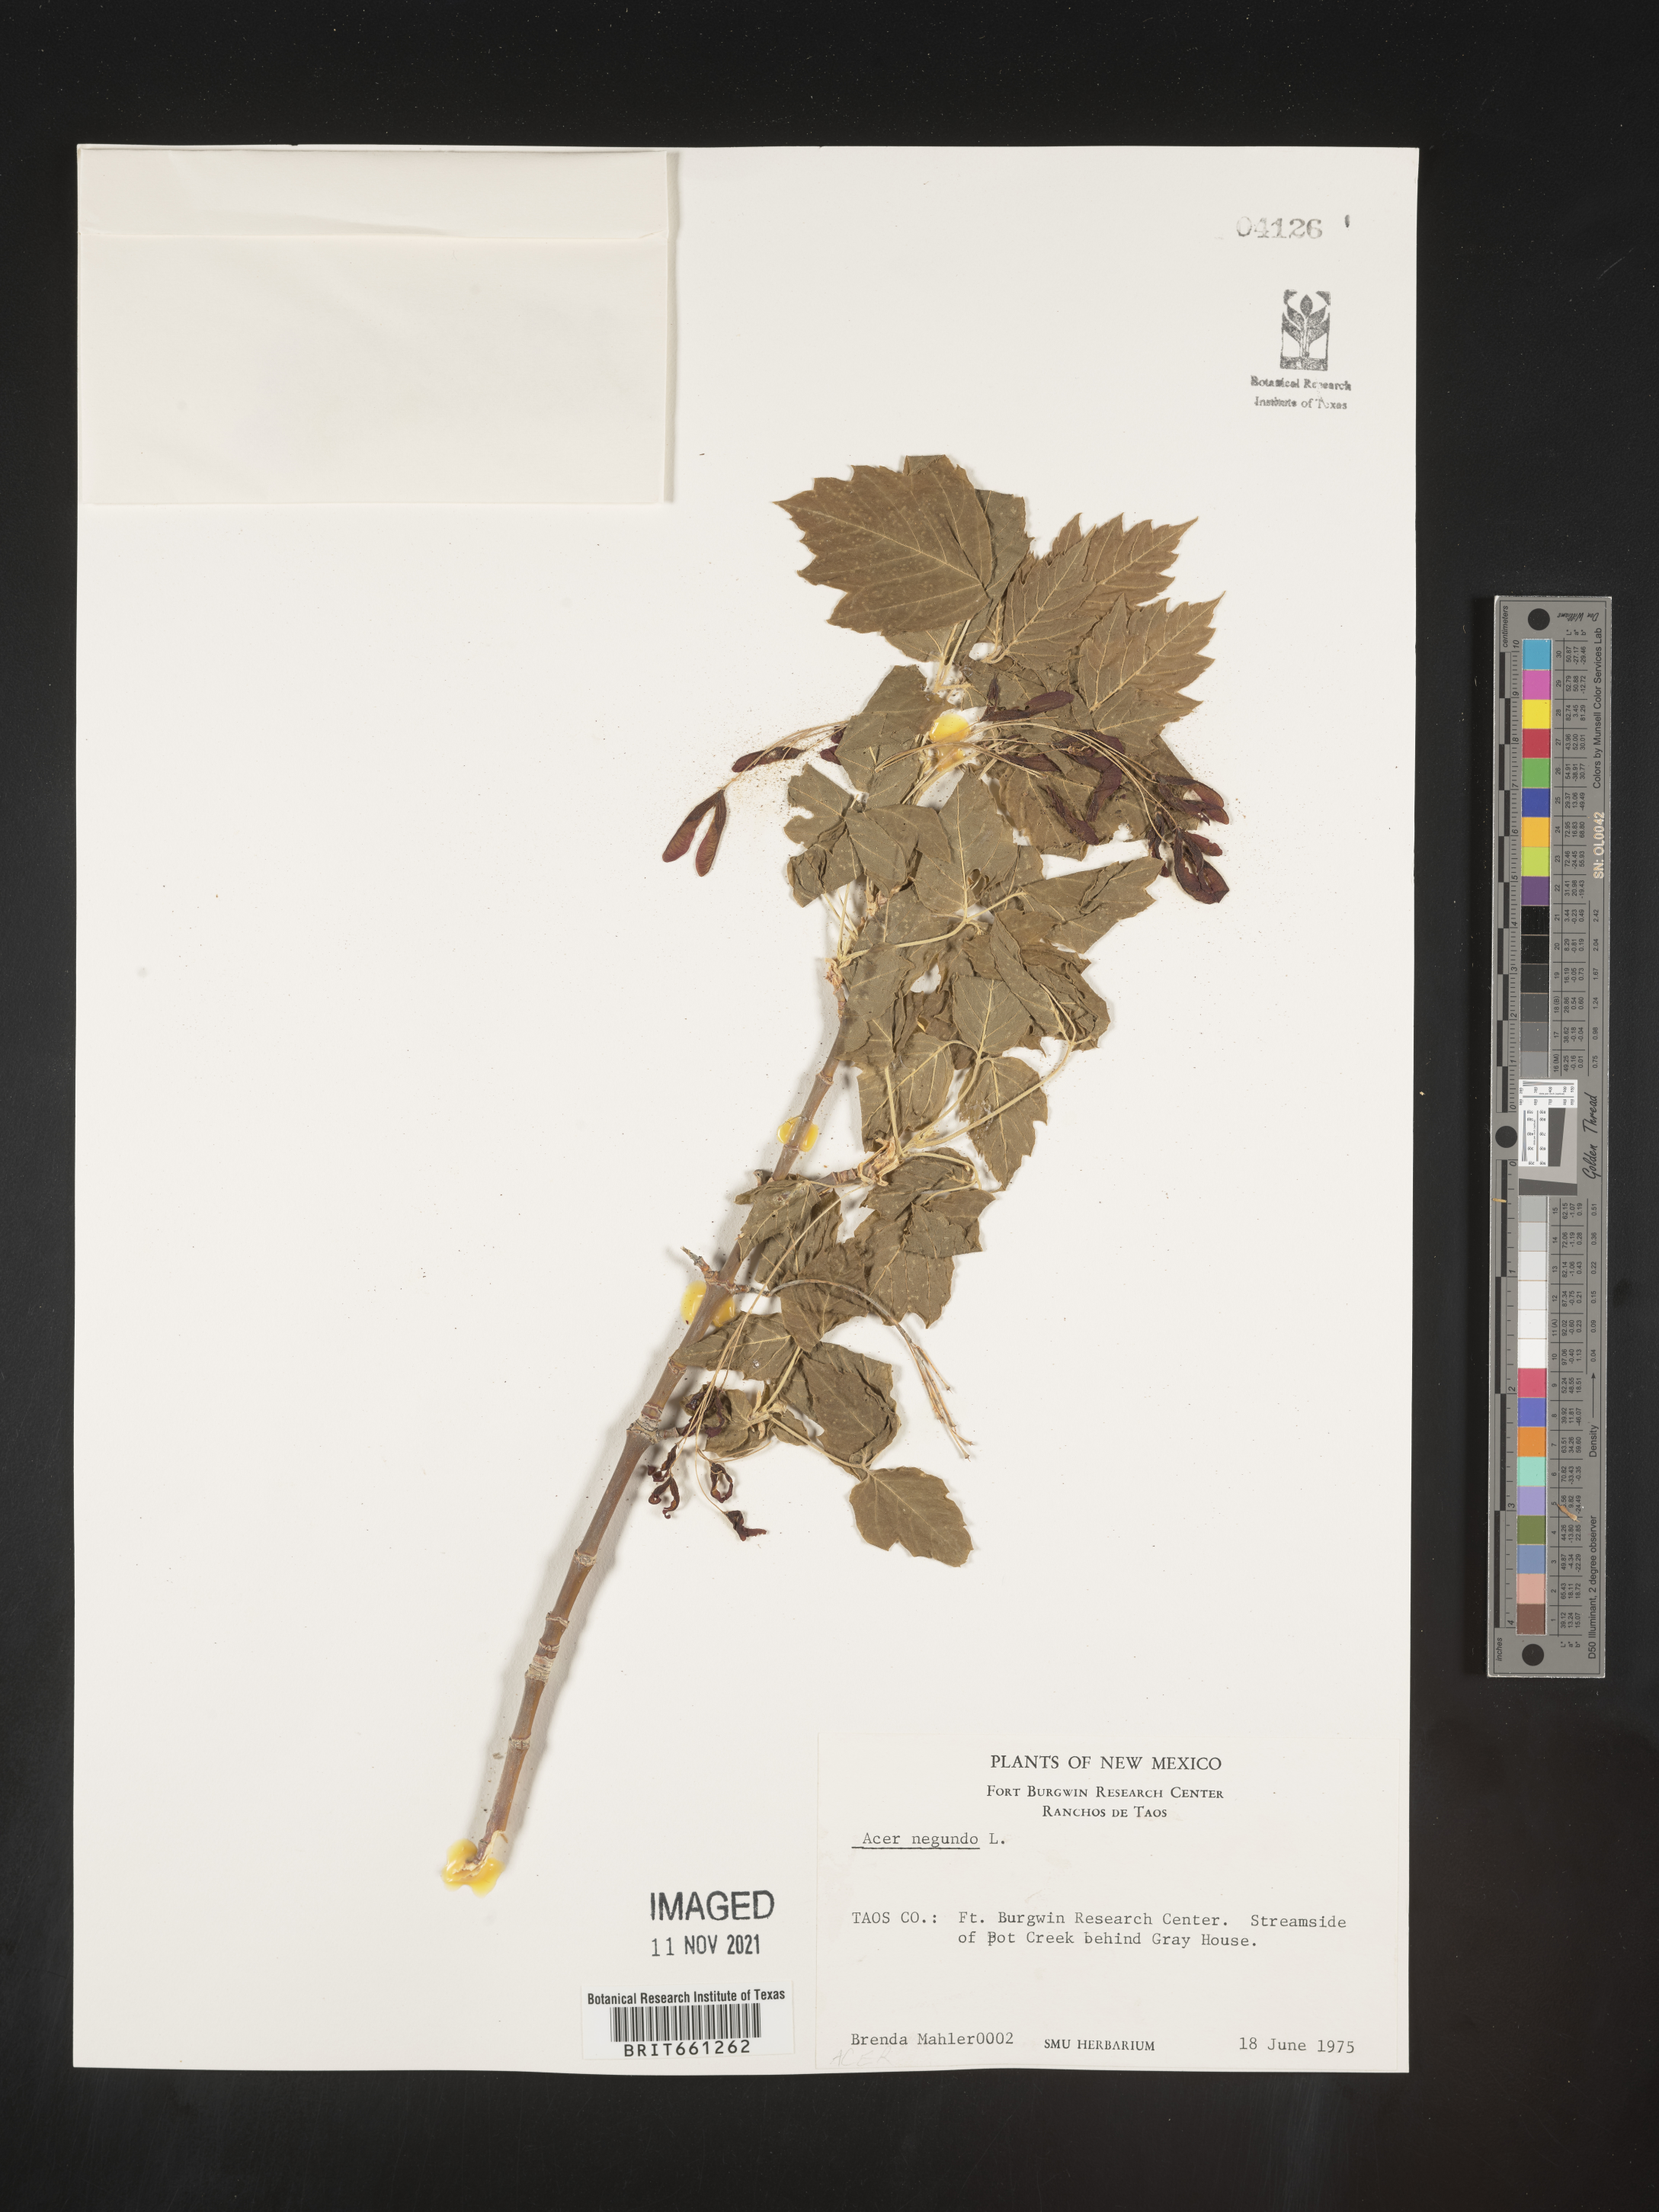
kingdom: Plantae
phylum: Tracheophyta
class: Magnoliopsida
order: Sapindales
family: Sapindaceae
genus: Acer
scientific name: Acer negundo
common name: Ashleaf maple
